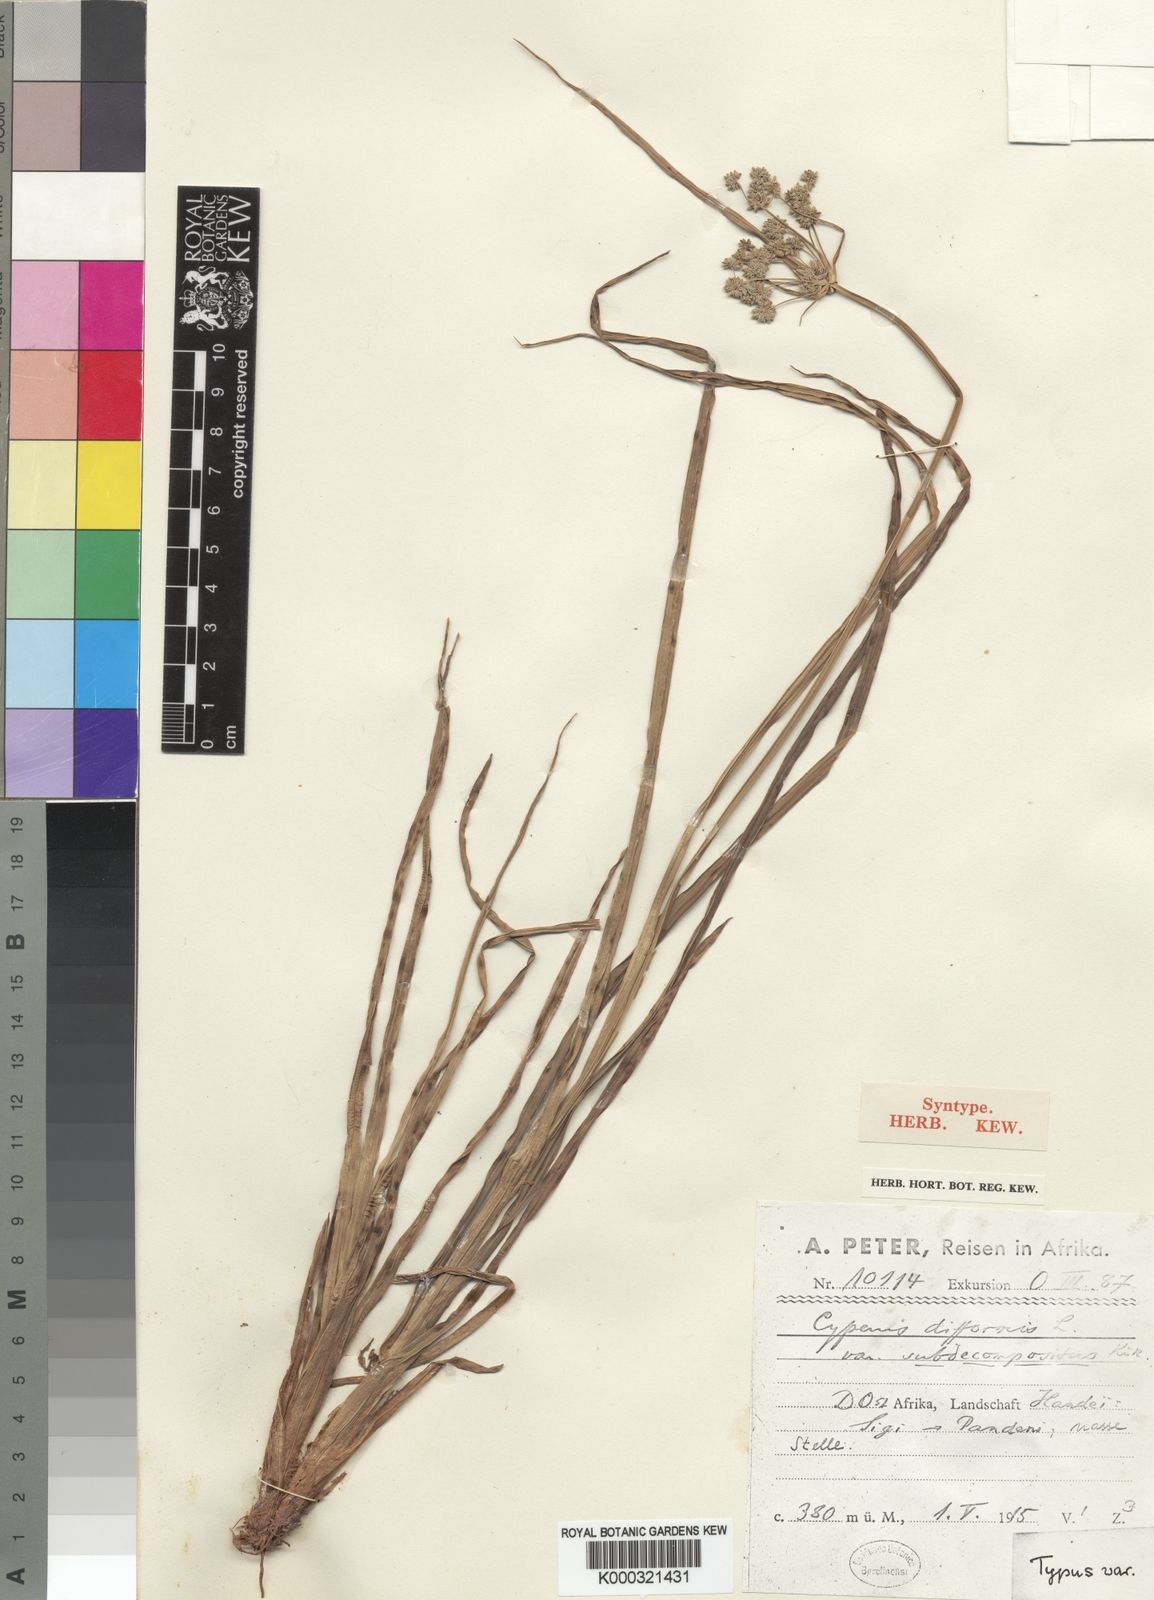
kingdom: Plantae
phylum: Tracheophyta
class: Liliopsida
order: Poales
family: Cyperaceae
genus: Cyperus
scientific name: Cyperus difformis
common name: Variable flatsedge
